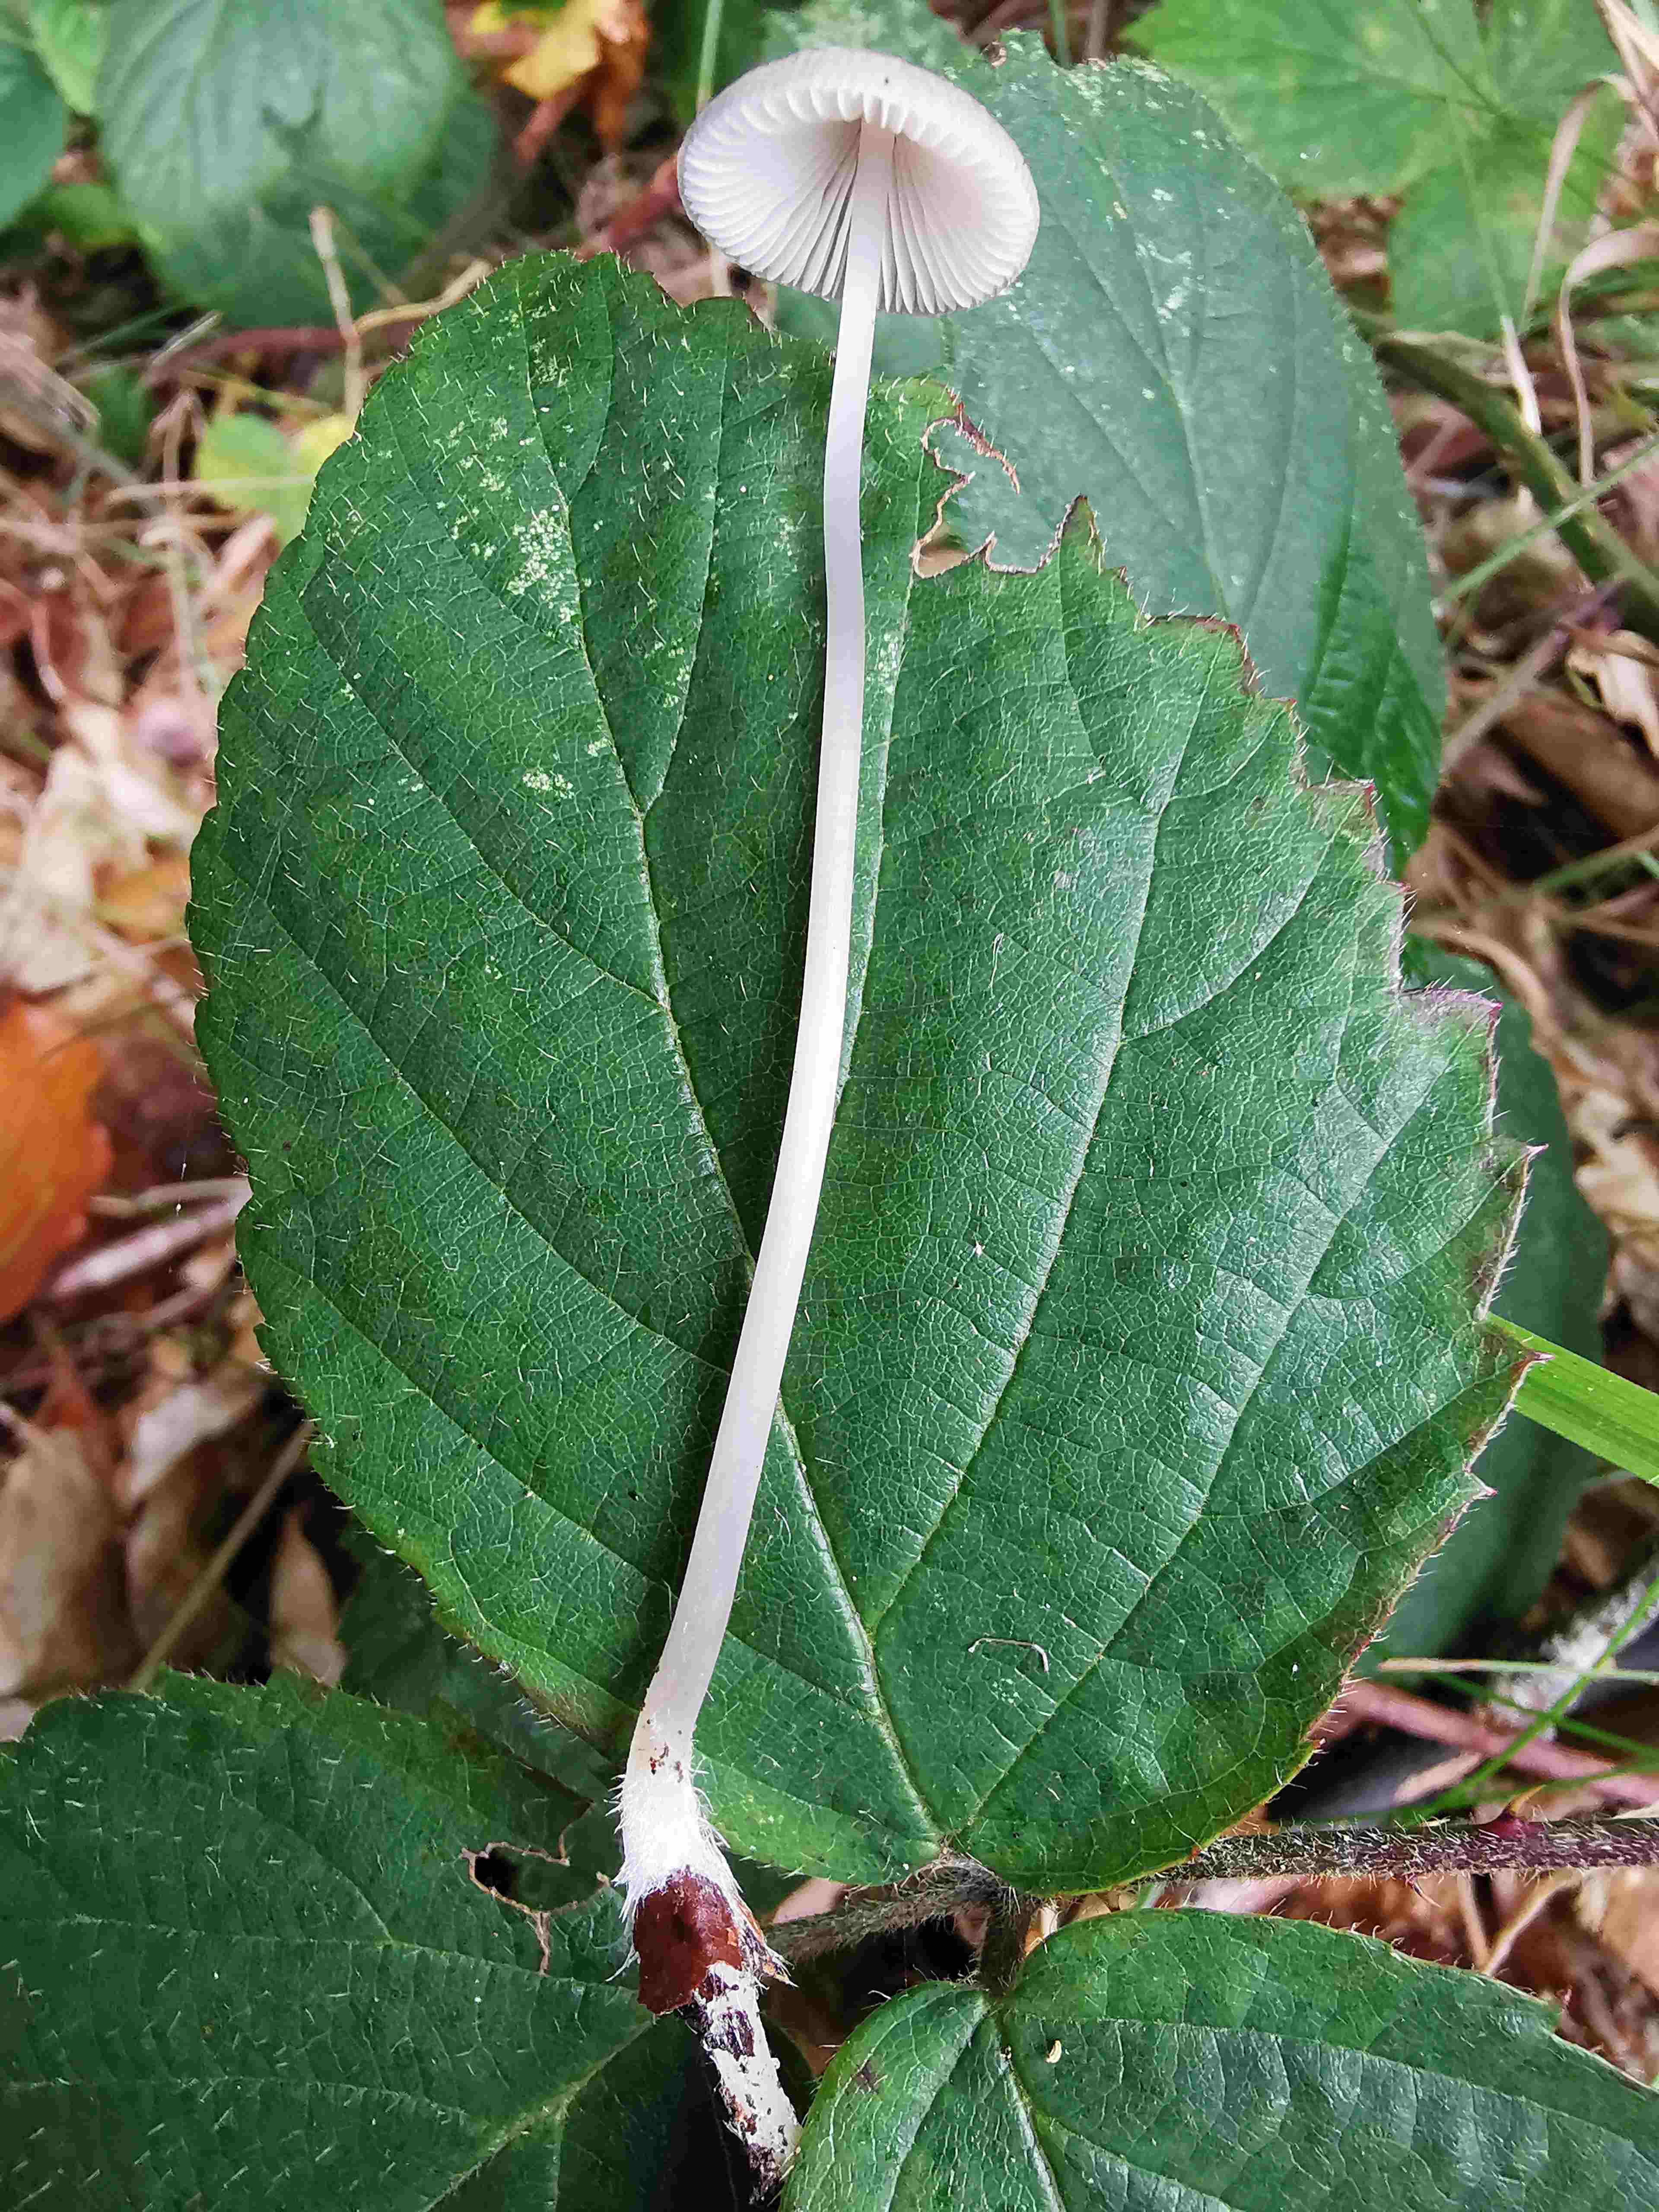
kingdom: Fungi
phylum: Basidiomycota
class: Agaricomycetes
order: Agaricales
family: Mycenaceae
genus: Mycena
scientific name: Mycena vitilis
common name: blankstokket huesvamp
